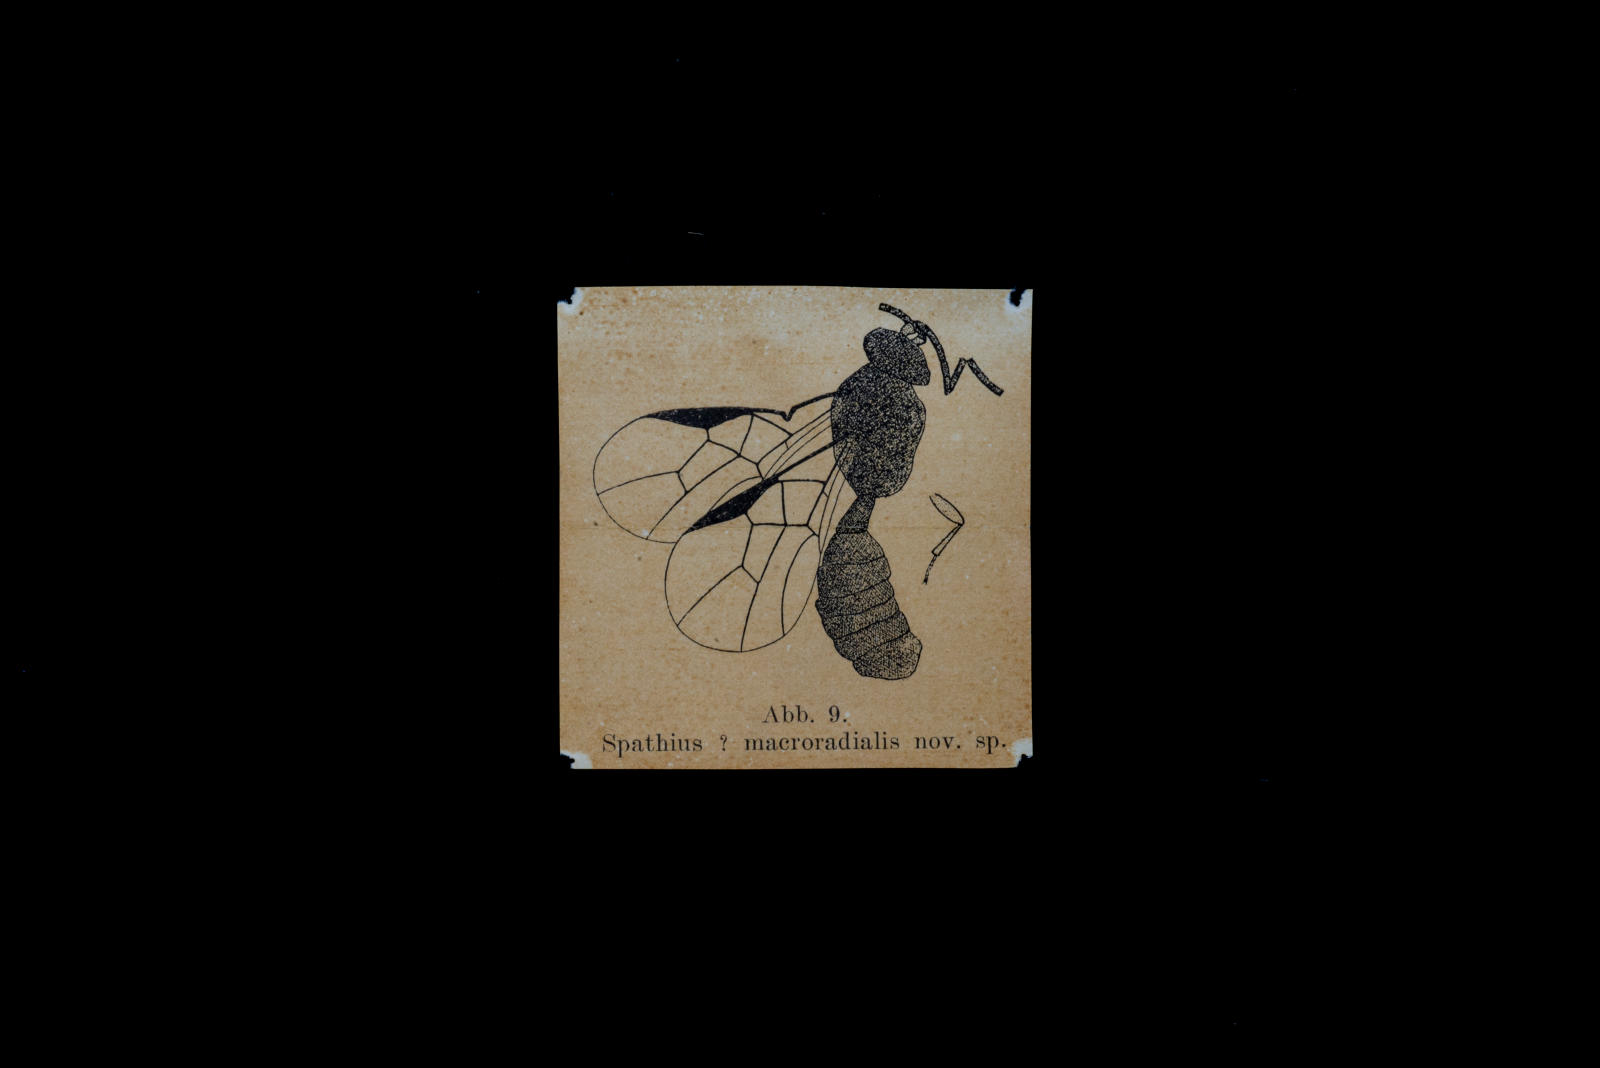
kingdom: Animalia
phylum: Arthropoda
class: Insecta
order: Hymenoptera
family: Braconidae
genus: Spathius
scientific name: Spathius macroradialis
